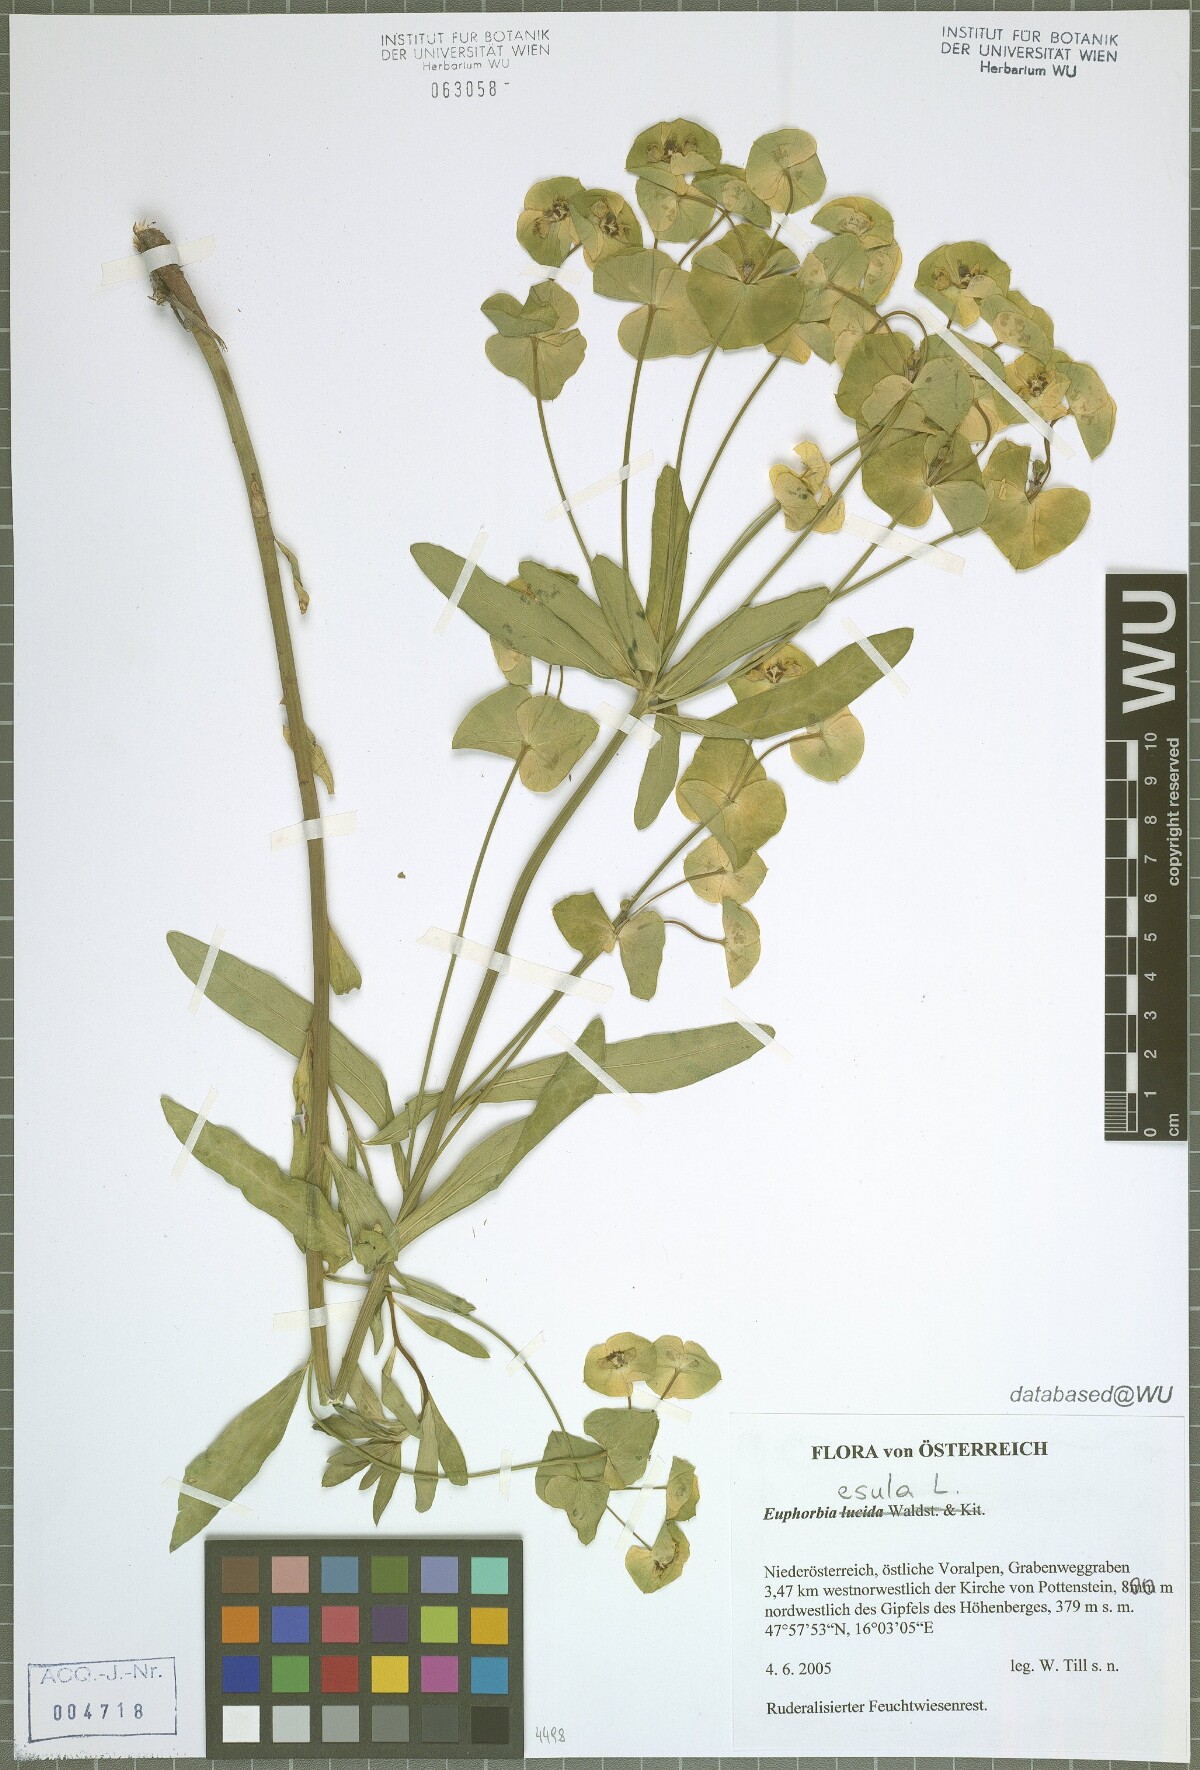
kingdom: Plantae
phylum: Tracheophyta
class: Magnoliopsida
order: Malpighiales
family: Euphorbiaceae
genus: Euphorbia
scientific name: Euphorbia esula
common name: Leafy spurge
